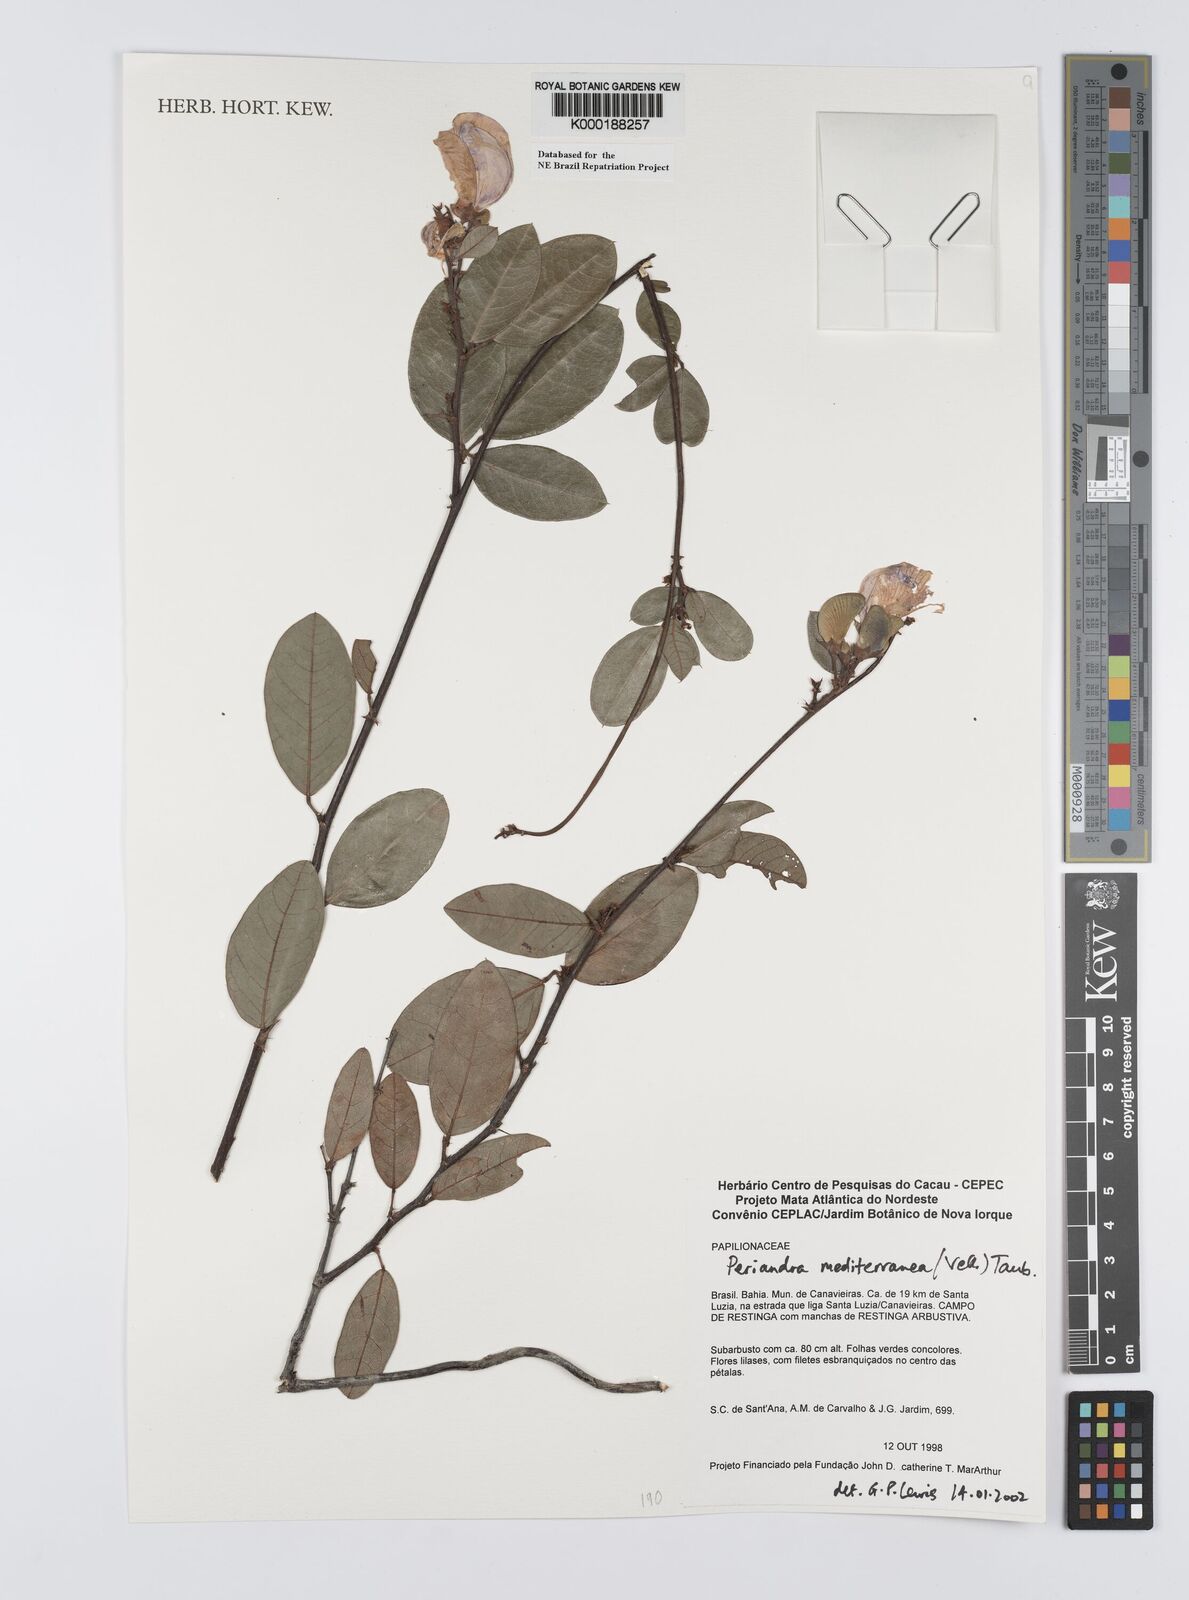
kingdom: Plantae
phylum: Tracheophyta
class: Magnoliopsida
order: Fabales
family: Fabaceae
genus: Periandra
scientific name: Periandra mediterranea
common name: Brazilian licorice
